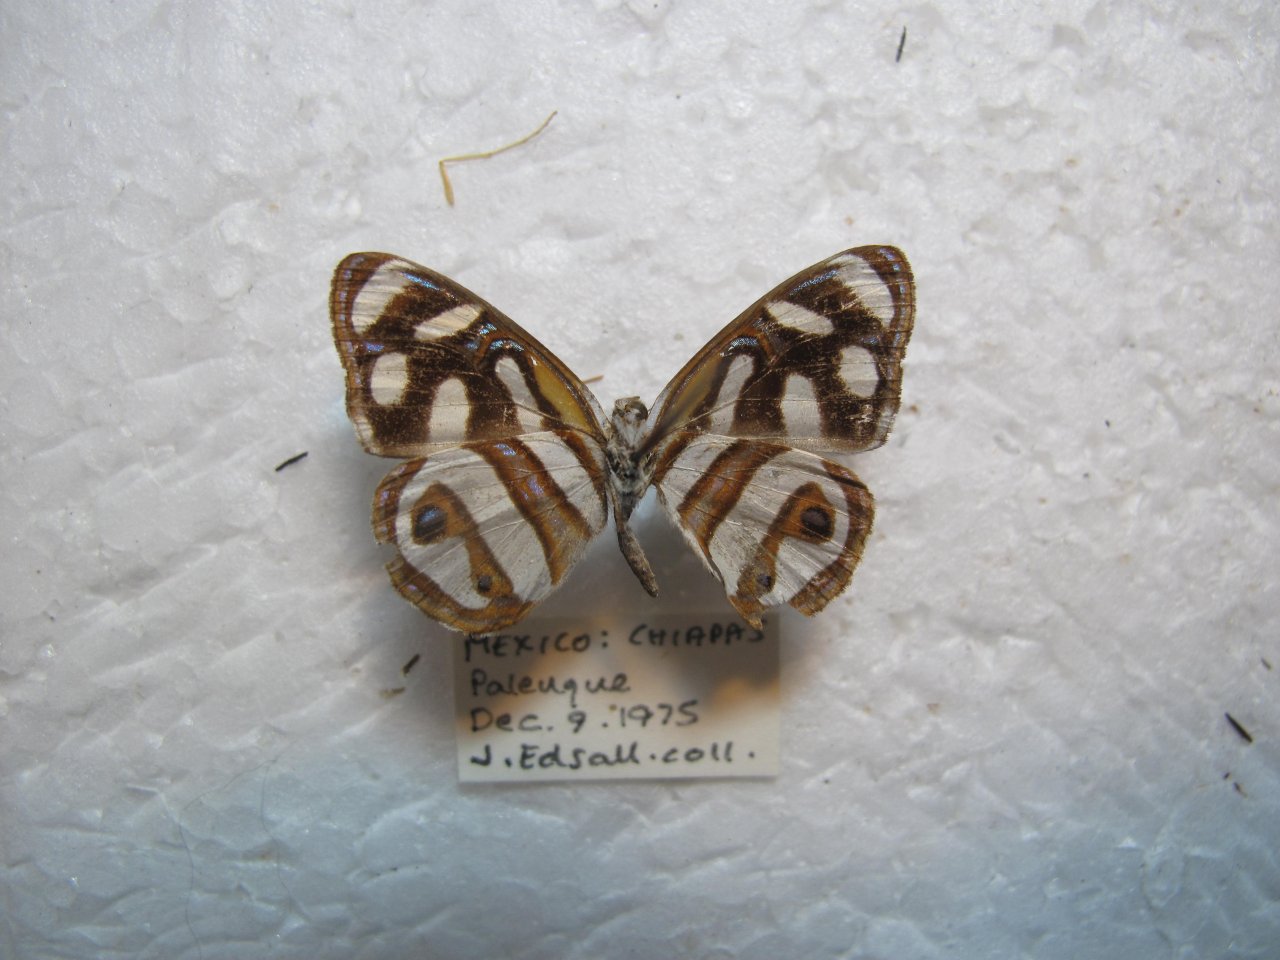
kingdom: Animalia
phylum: Arthropoda
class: Insecta
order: Lepidoptera
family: Nymphalidae
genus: Dynamine
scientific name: Dynamine artemisia
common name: Small-eyed Sailor
